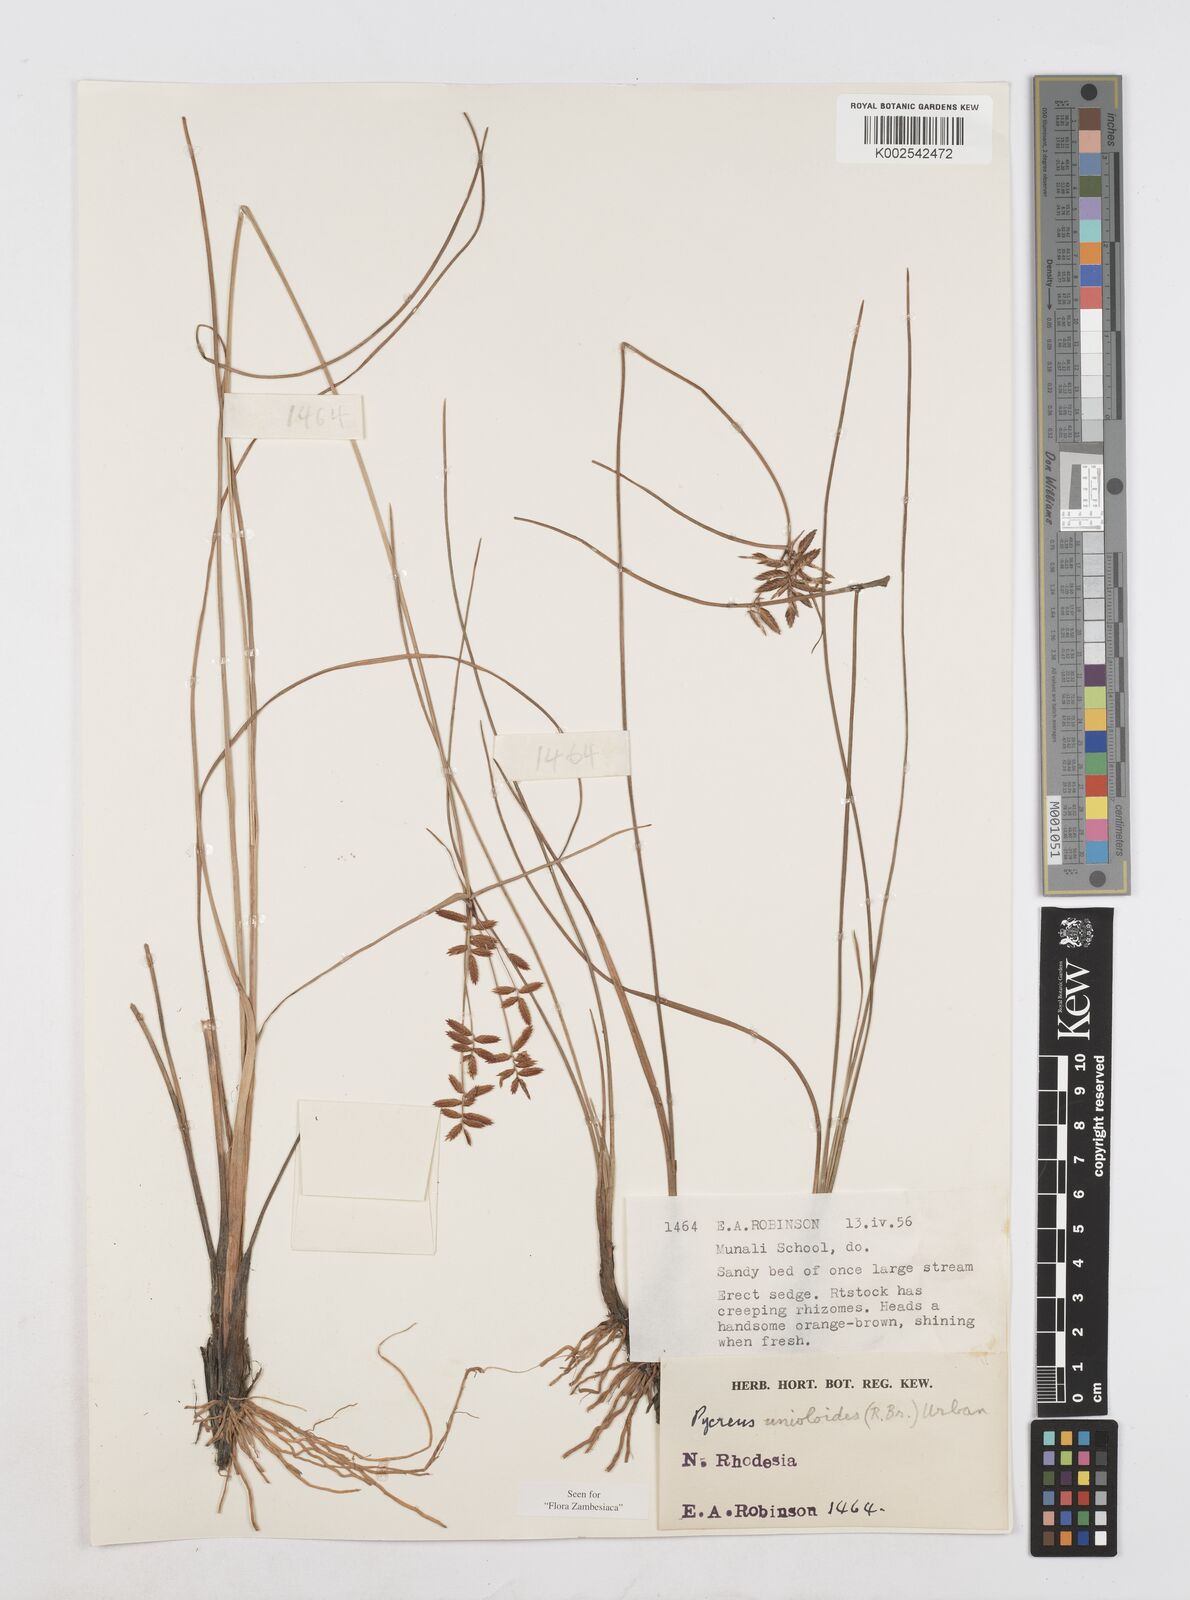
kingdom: Plantae
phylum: Tracheophyta
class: Liliopsida
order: Poales
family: Cyperaceae
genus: Cyperus
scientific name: Cyperus unioloides
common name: Uniola flatsedge
